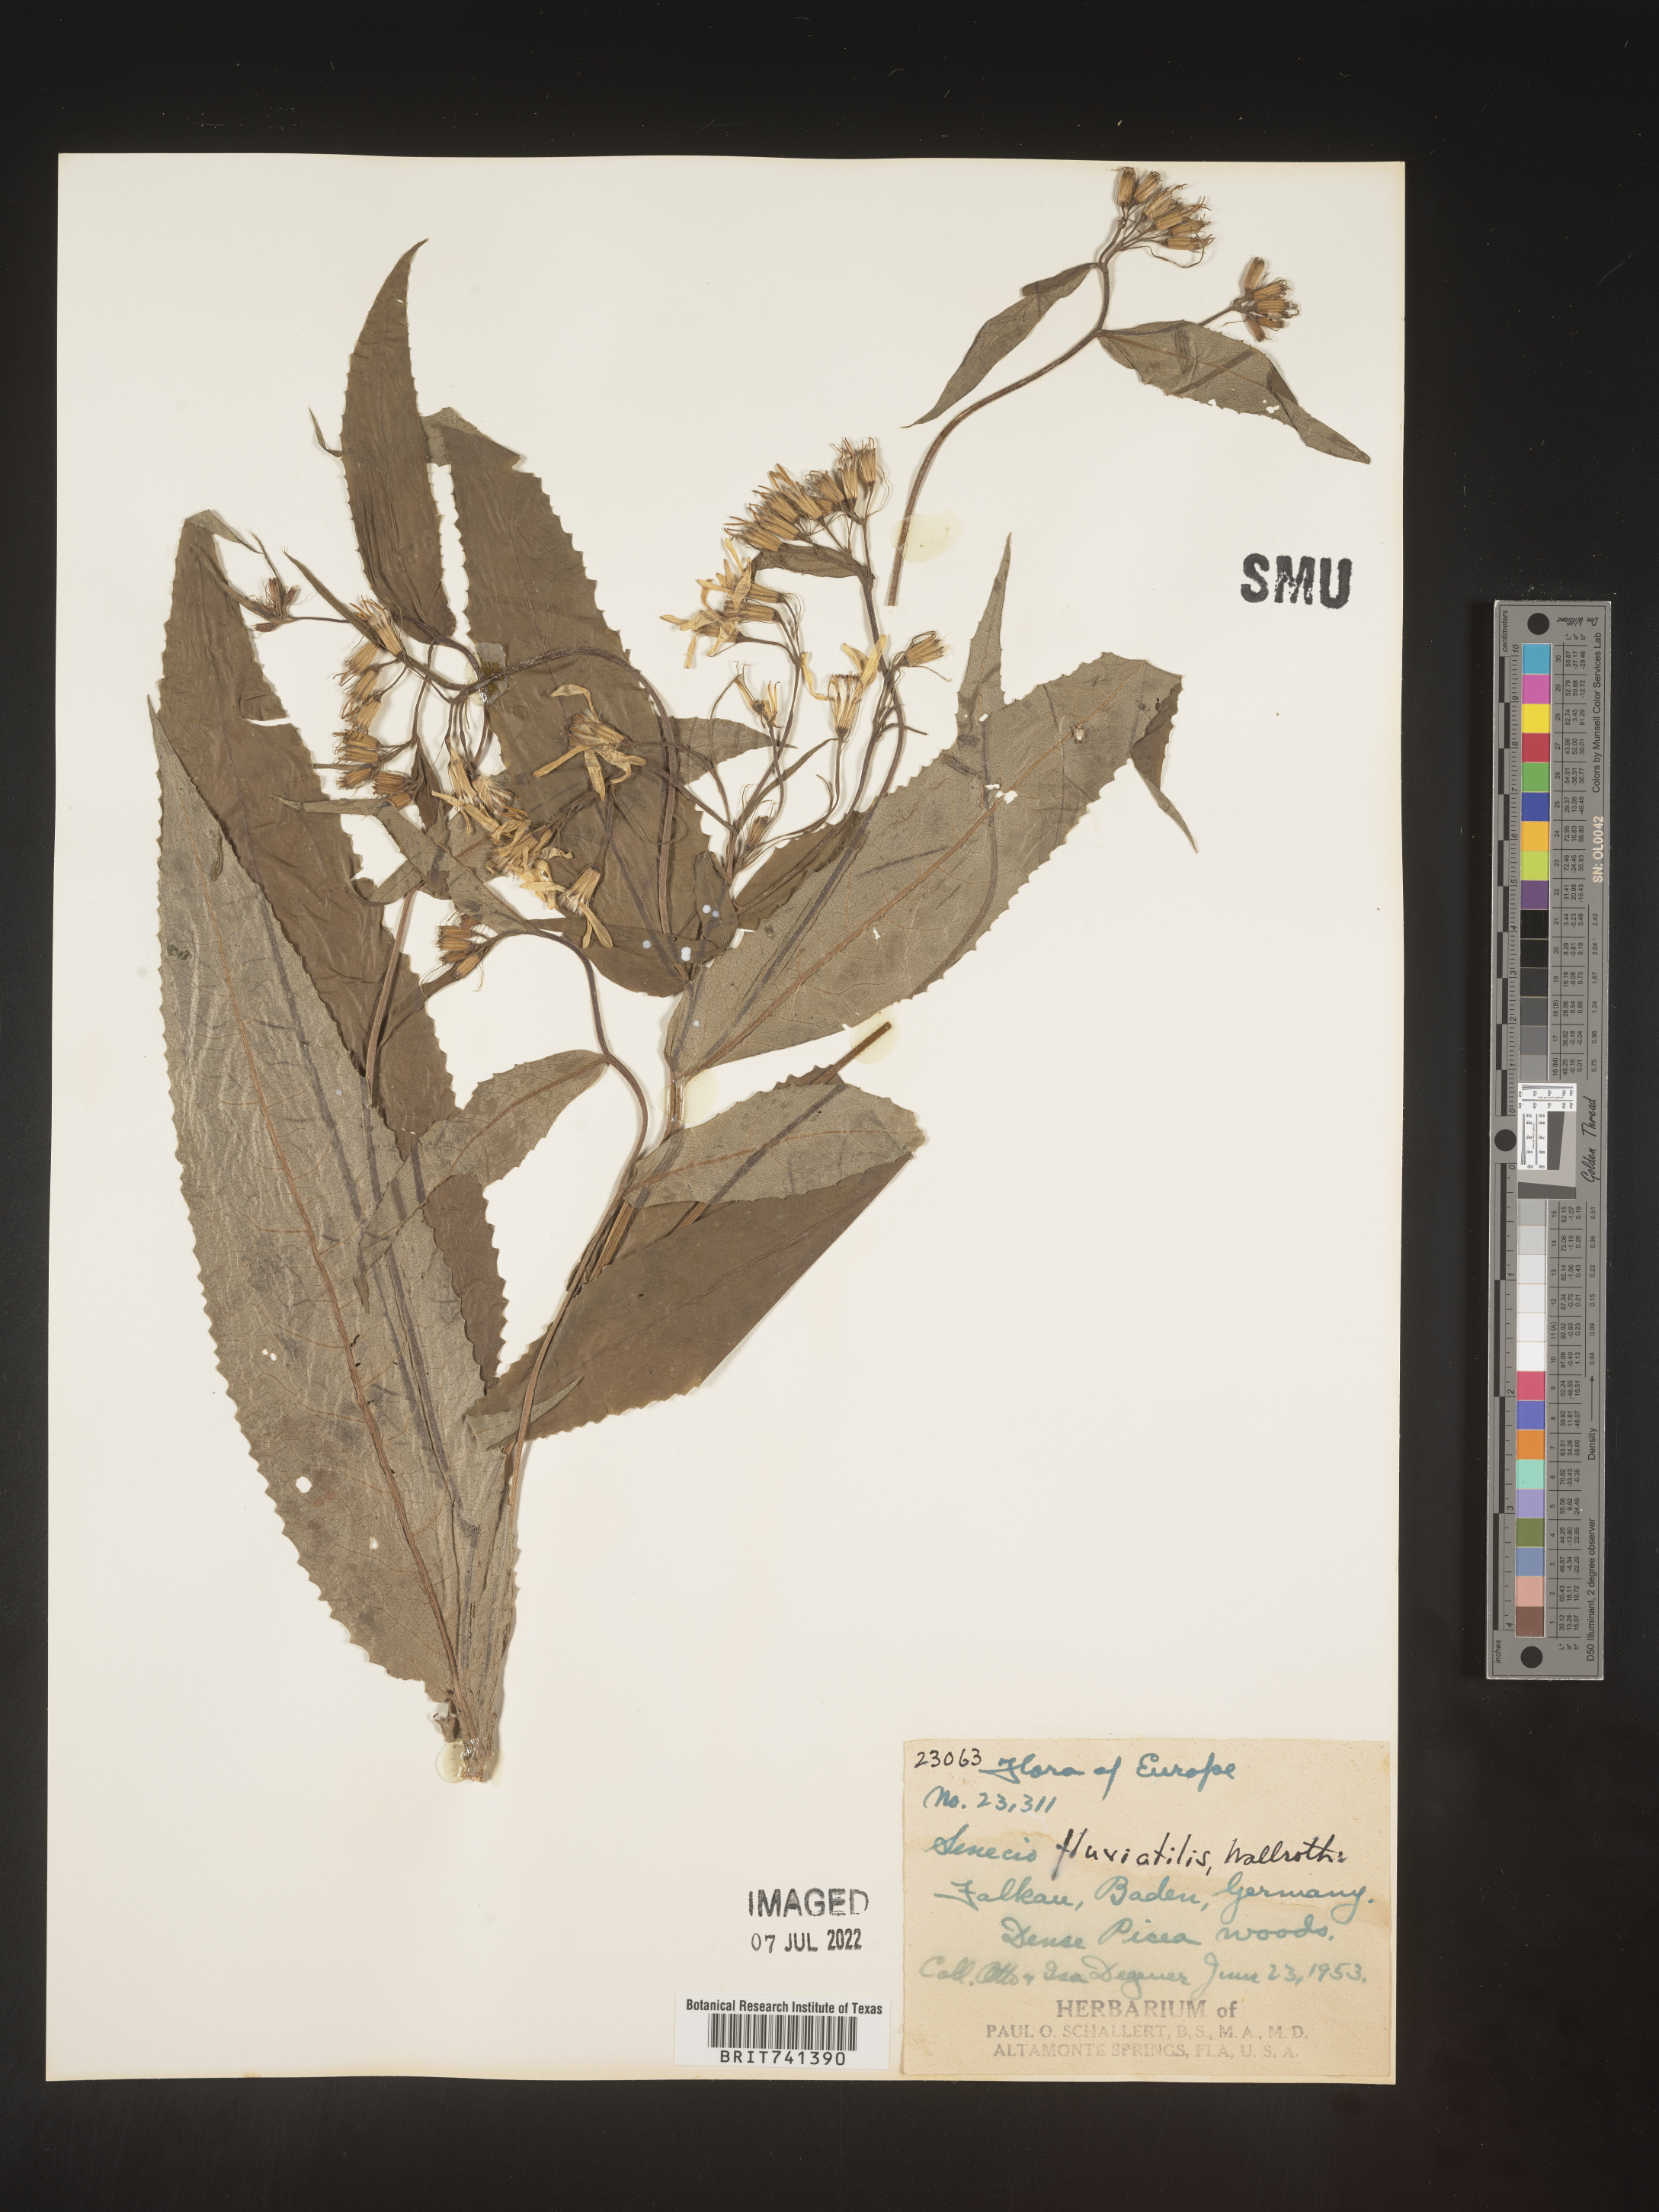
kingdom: Plantae
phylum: Tracheophyta
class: Magnoliopsida
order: Asterales
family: Asteraceae
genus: Senecio
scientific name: Senecio
